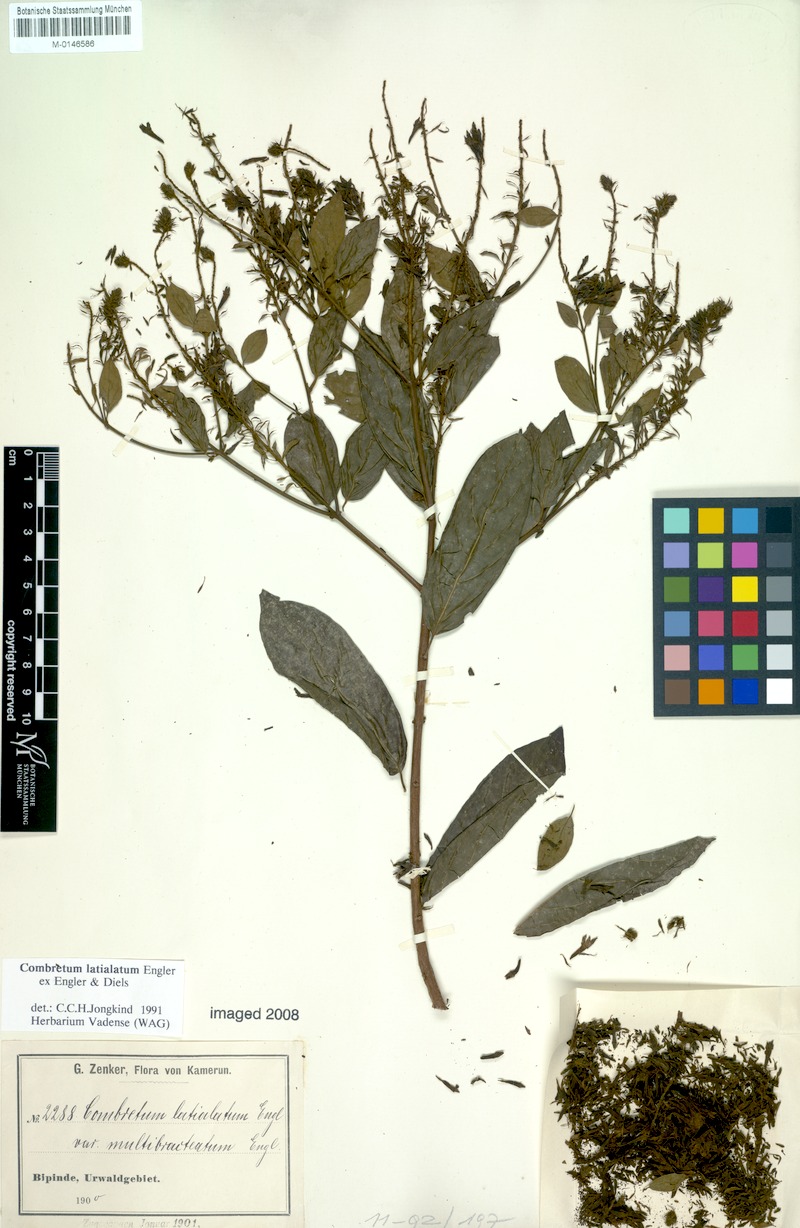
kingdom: Plantae
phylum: Tracheophyta
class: Magnoliopsida
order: Myrtales
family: Combretaceae
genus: Combretum
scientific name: Combretum latialatum
